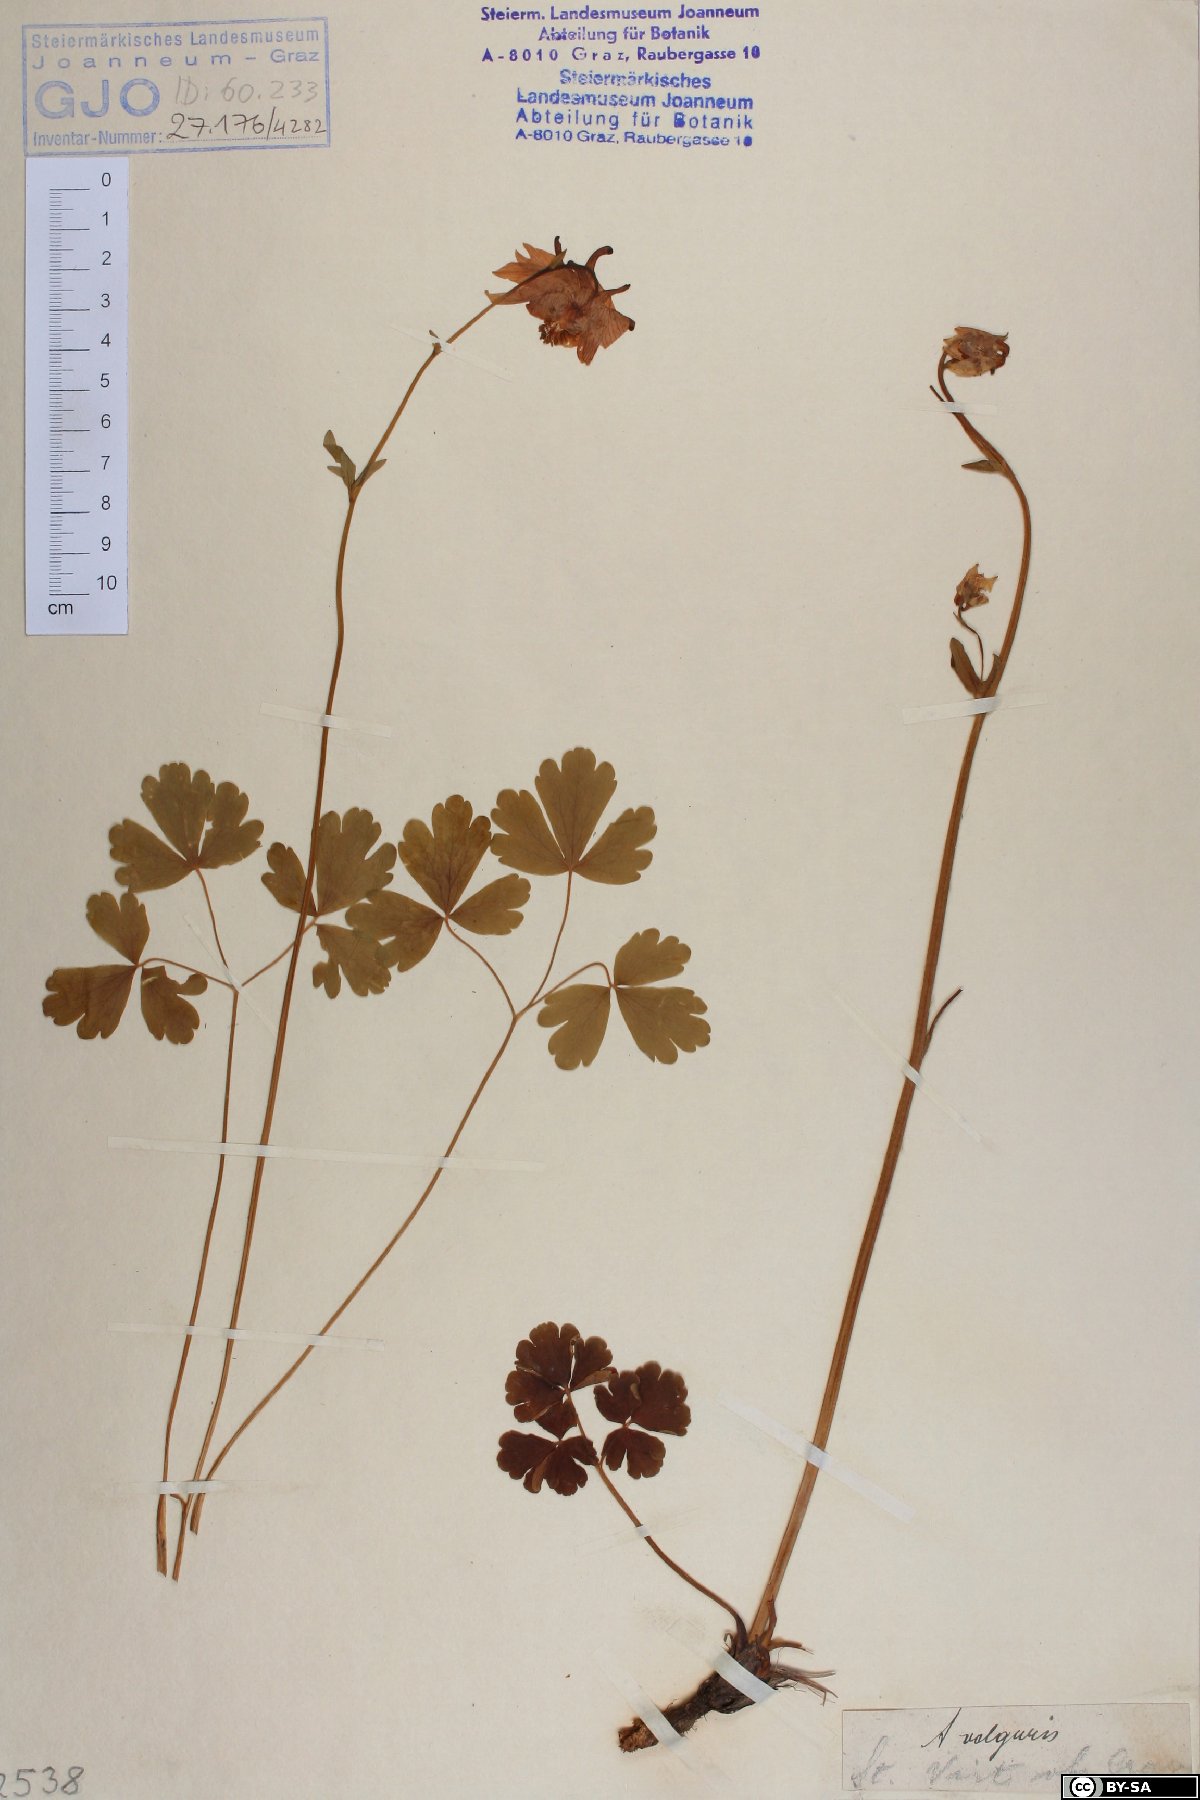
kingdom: Plantae
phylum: Tracheophyta
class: Magnoliopsida
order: Ranunculales
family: Ranunculaceae
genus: Aquilegia
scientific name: Aquilegia vulgaris
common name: Columbine
